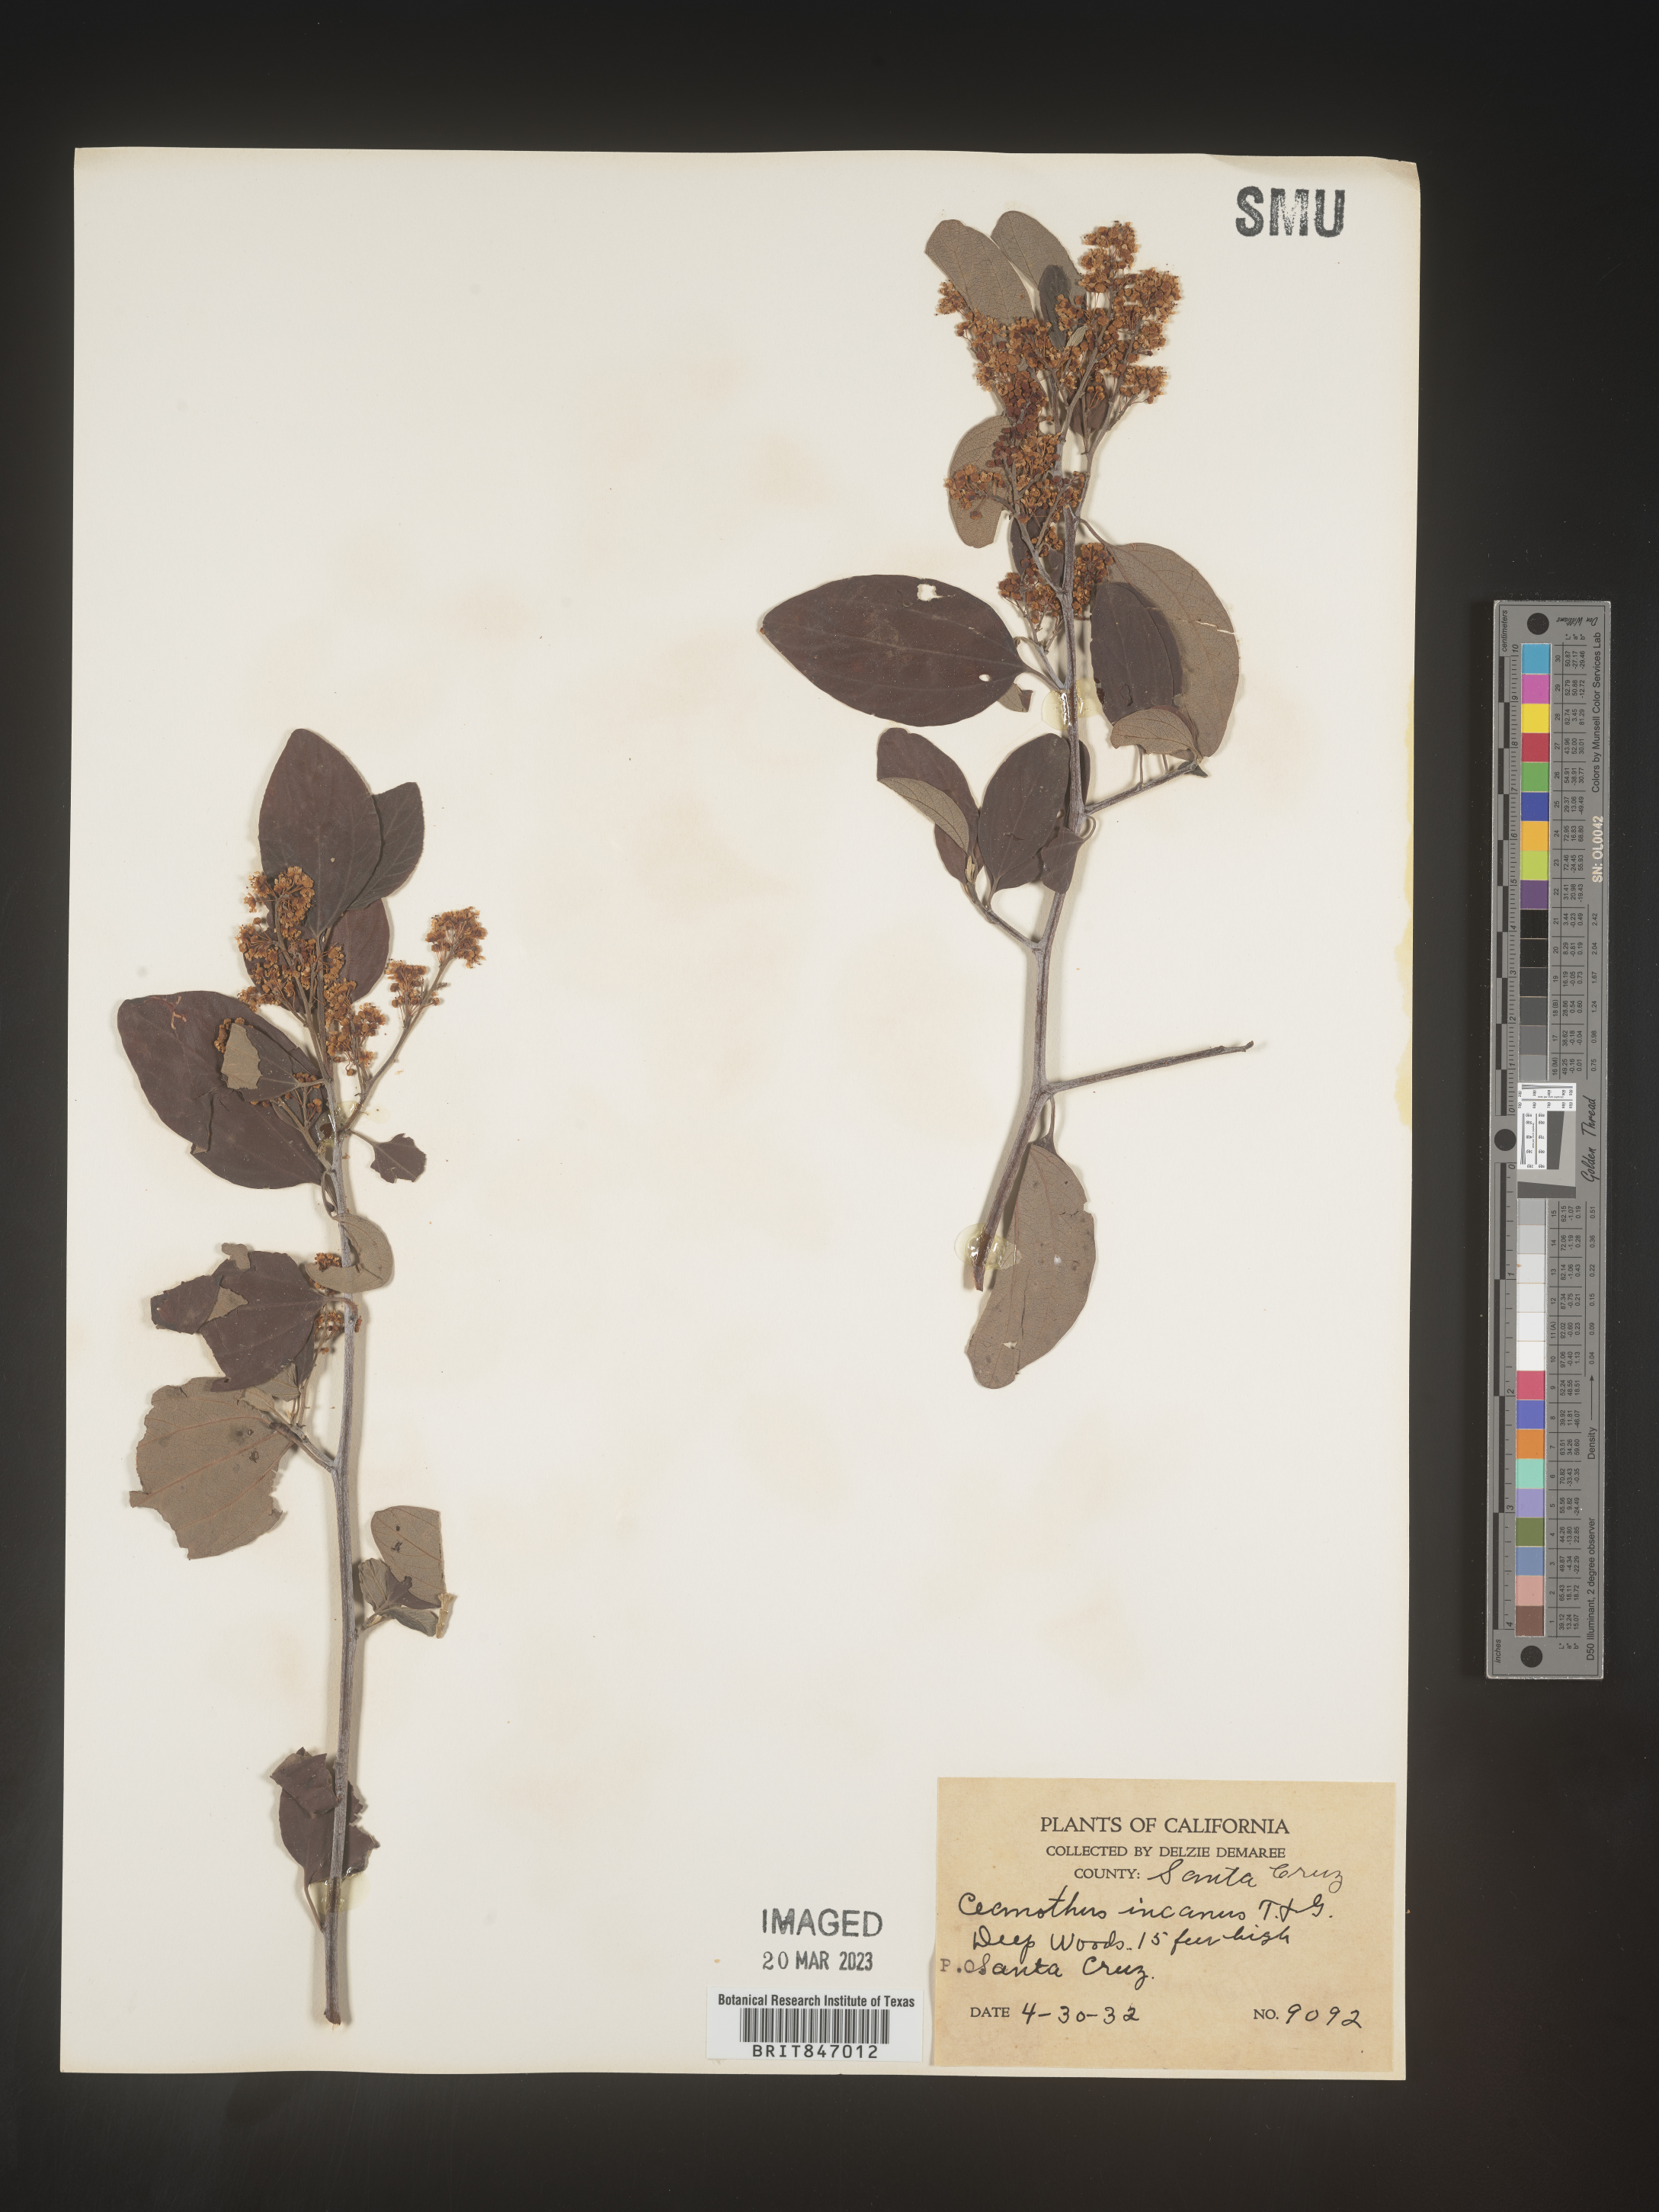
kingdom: Plantae
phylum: Tracheophyta
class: Magnoliopsida
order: Rosales
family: Rhamnaceae
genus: Ceanothus
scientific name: Ceanothus
